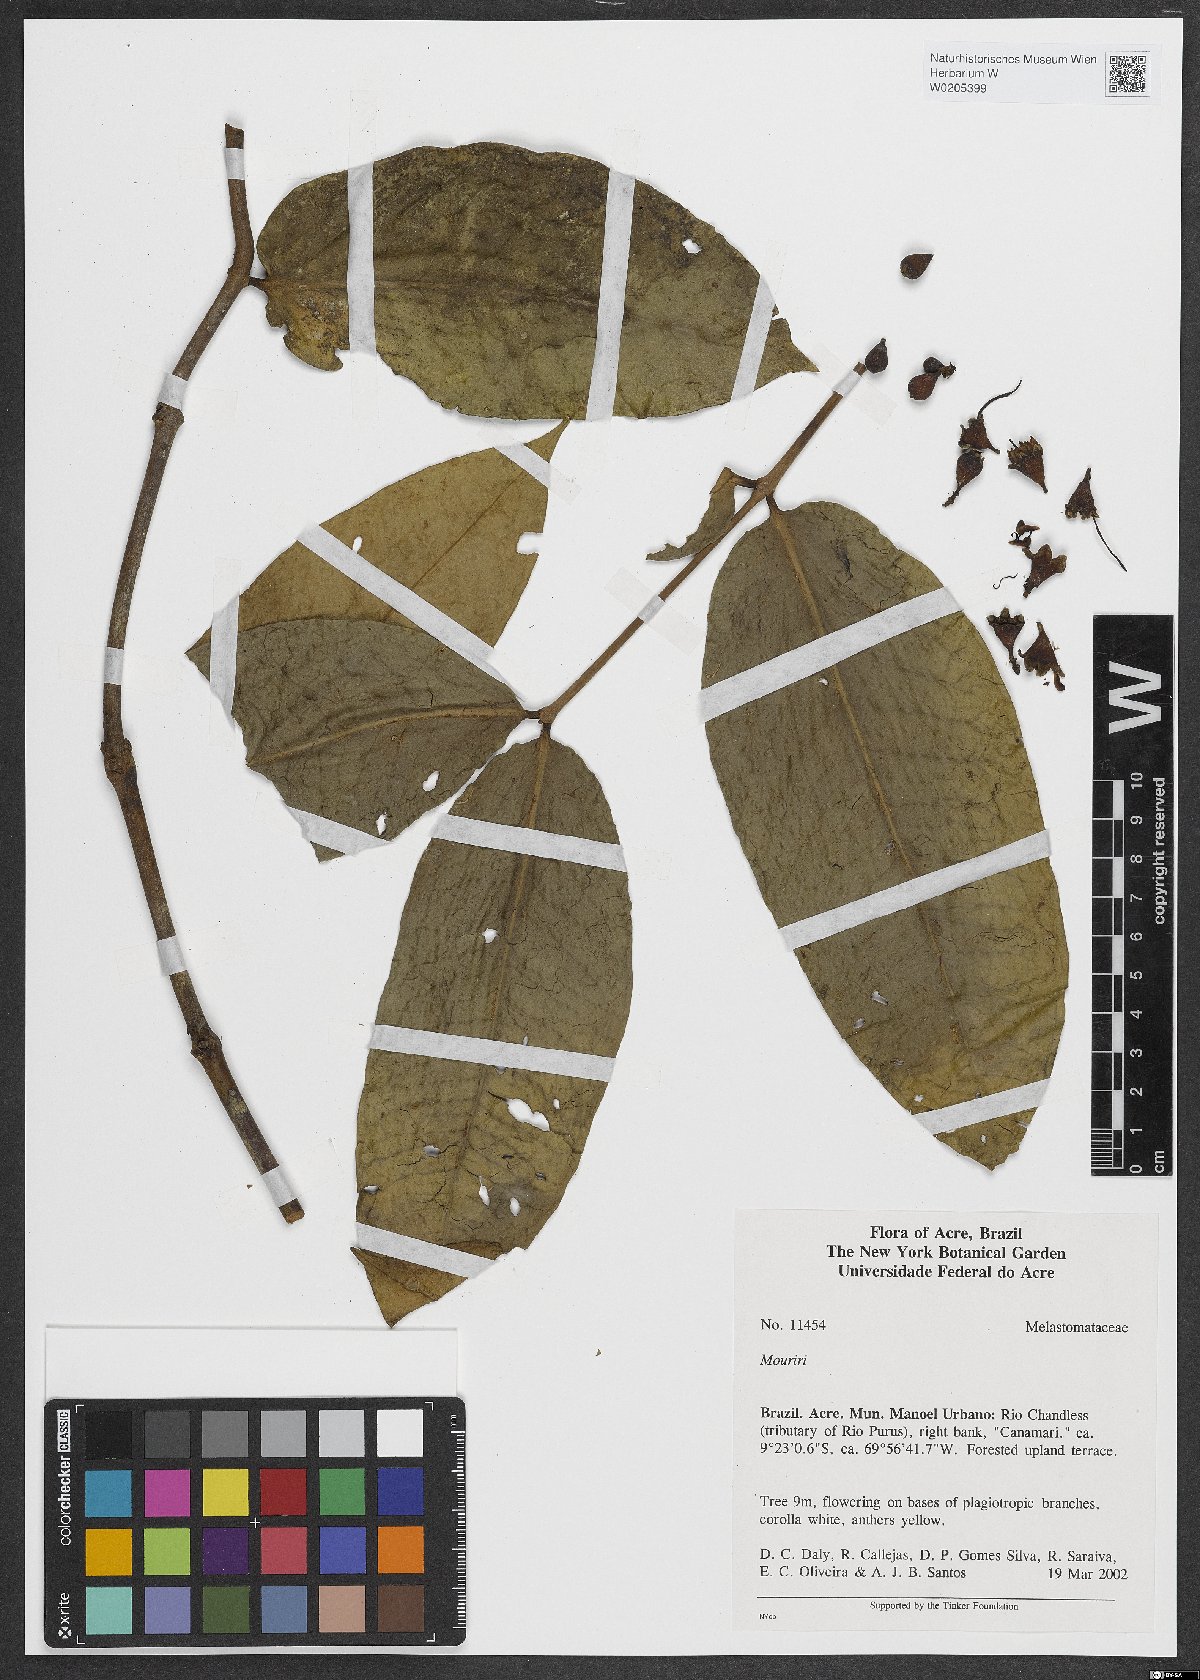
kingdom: Plantae
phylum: Tracheophyta
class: Magnoliopsida
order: Myrtales
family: Melastomataceae
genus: Mouriri
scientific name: Mouriri
